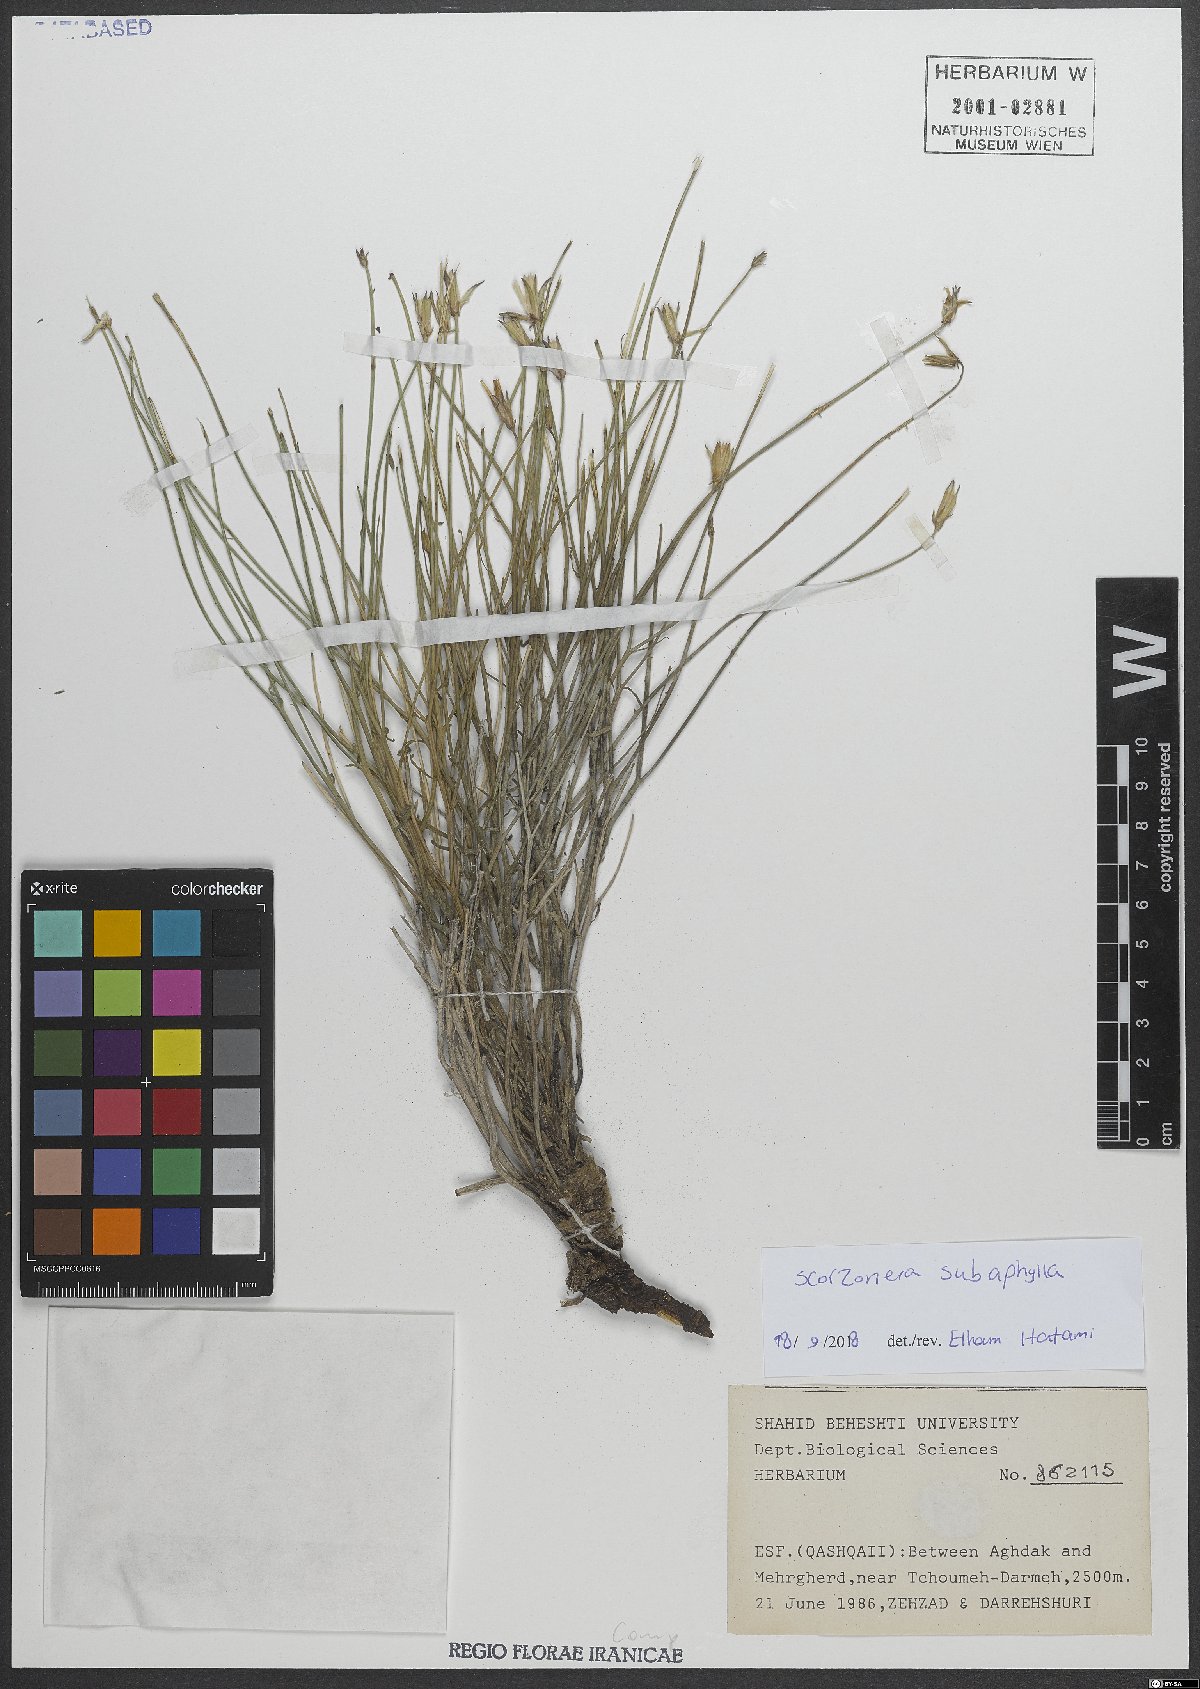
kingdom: Plantae
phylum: Tracheophyta
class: Magnoliopsida
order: Asterales
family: Asteraceae
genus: Scorzonera
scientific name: Scorzonera subaphylla
